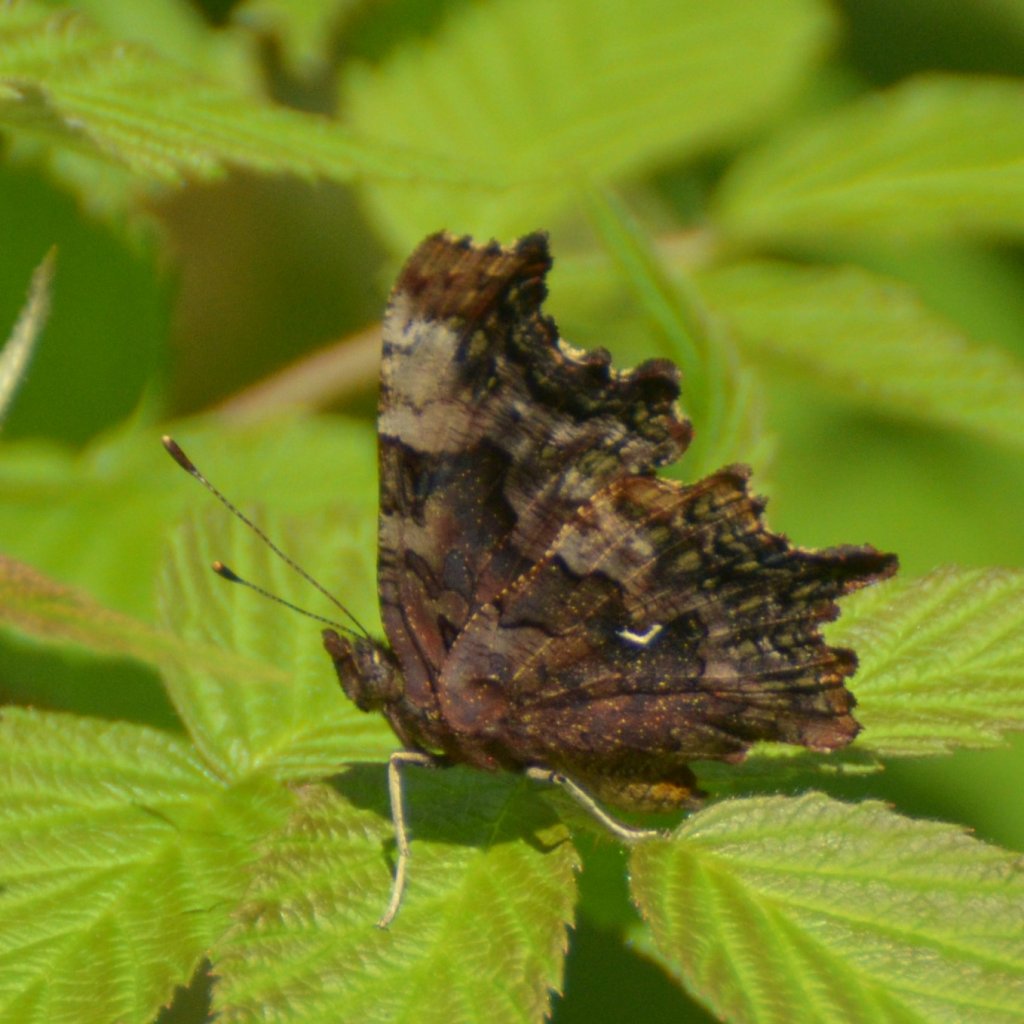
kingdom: Animalia
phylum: Arthropoda
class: Insecta
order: Lepidoptera
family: Nymphalidae
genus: Polygonia
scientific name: Polygonia faunus
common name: Green Comma
